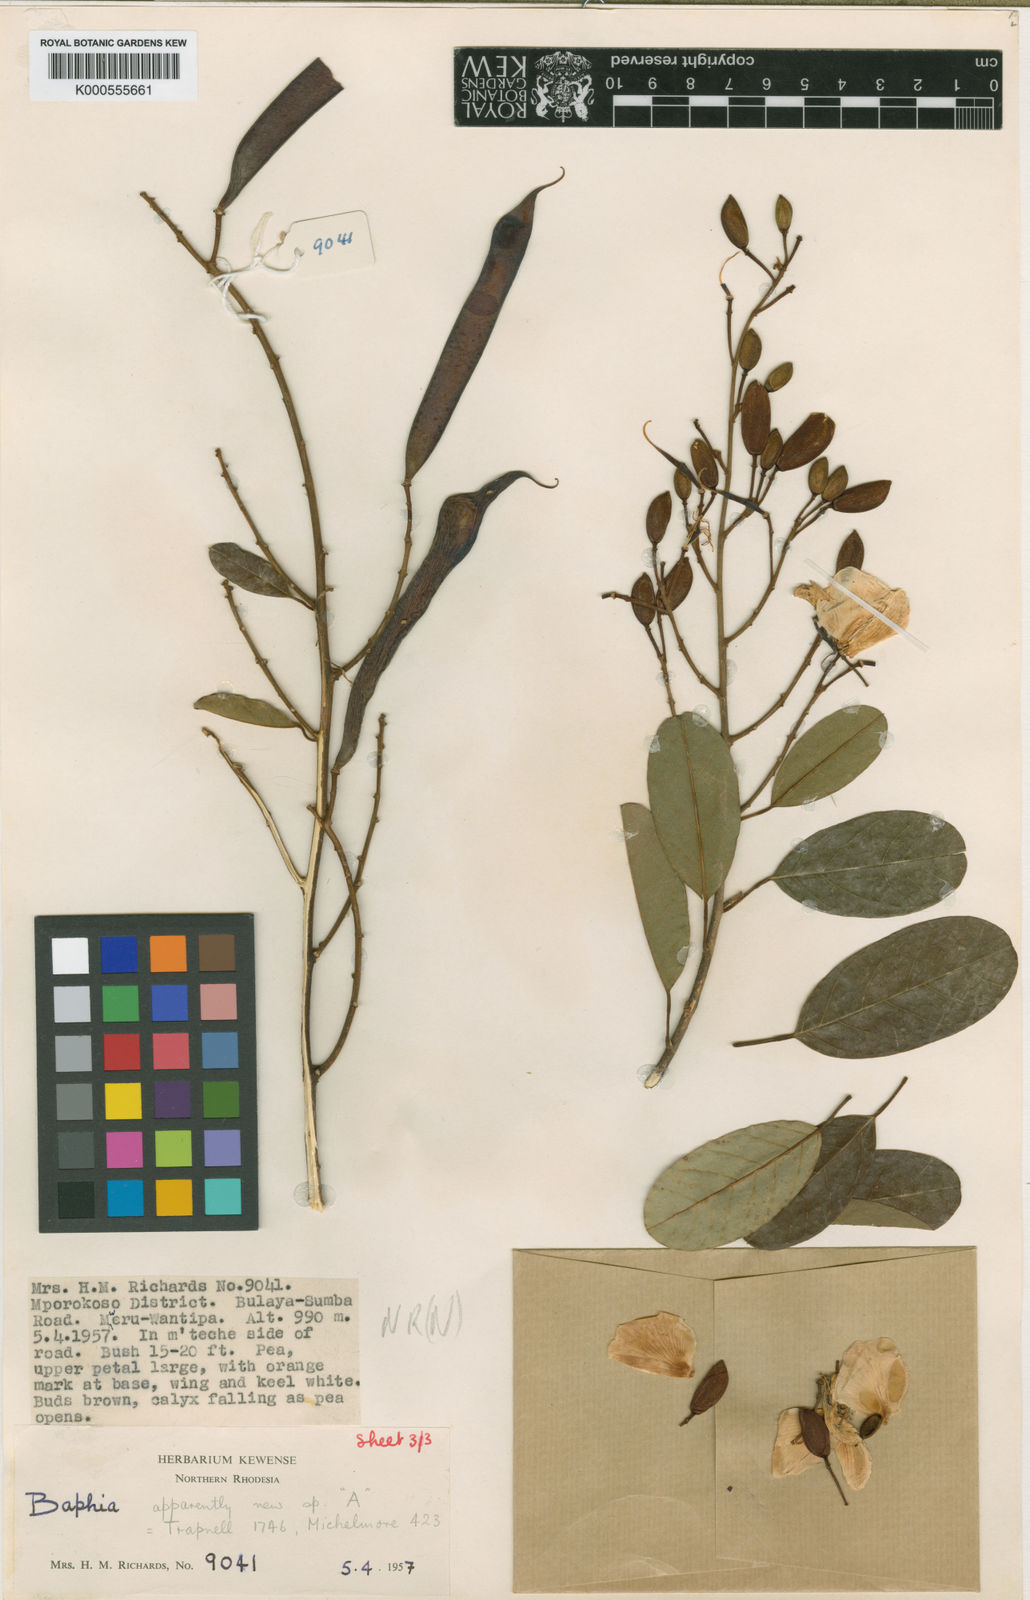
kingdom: Plantae
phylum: Tracheophyta
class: Magnoliopsida
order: Fabales
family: Fabaceae
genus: Baphia
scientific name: Baphia speciosa
